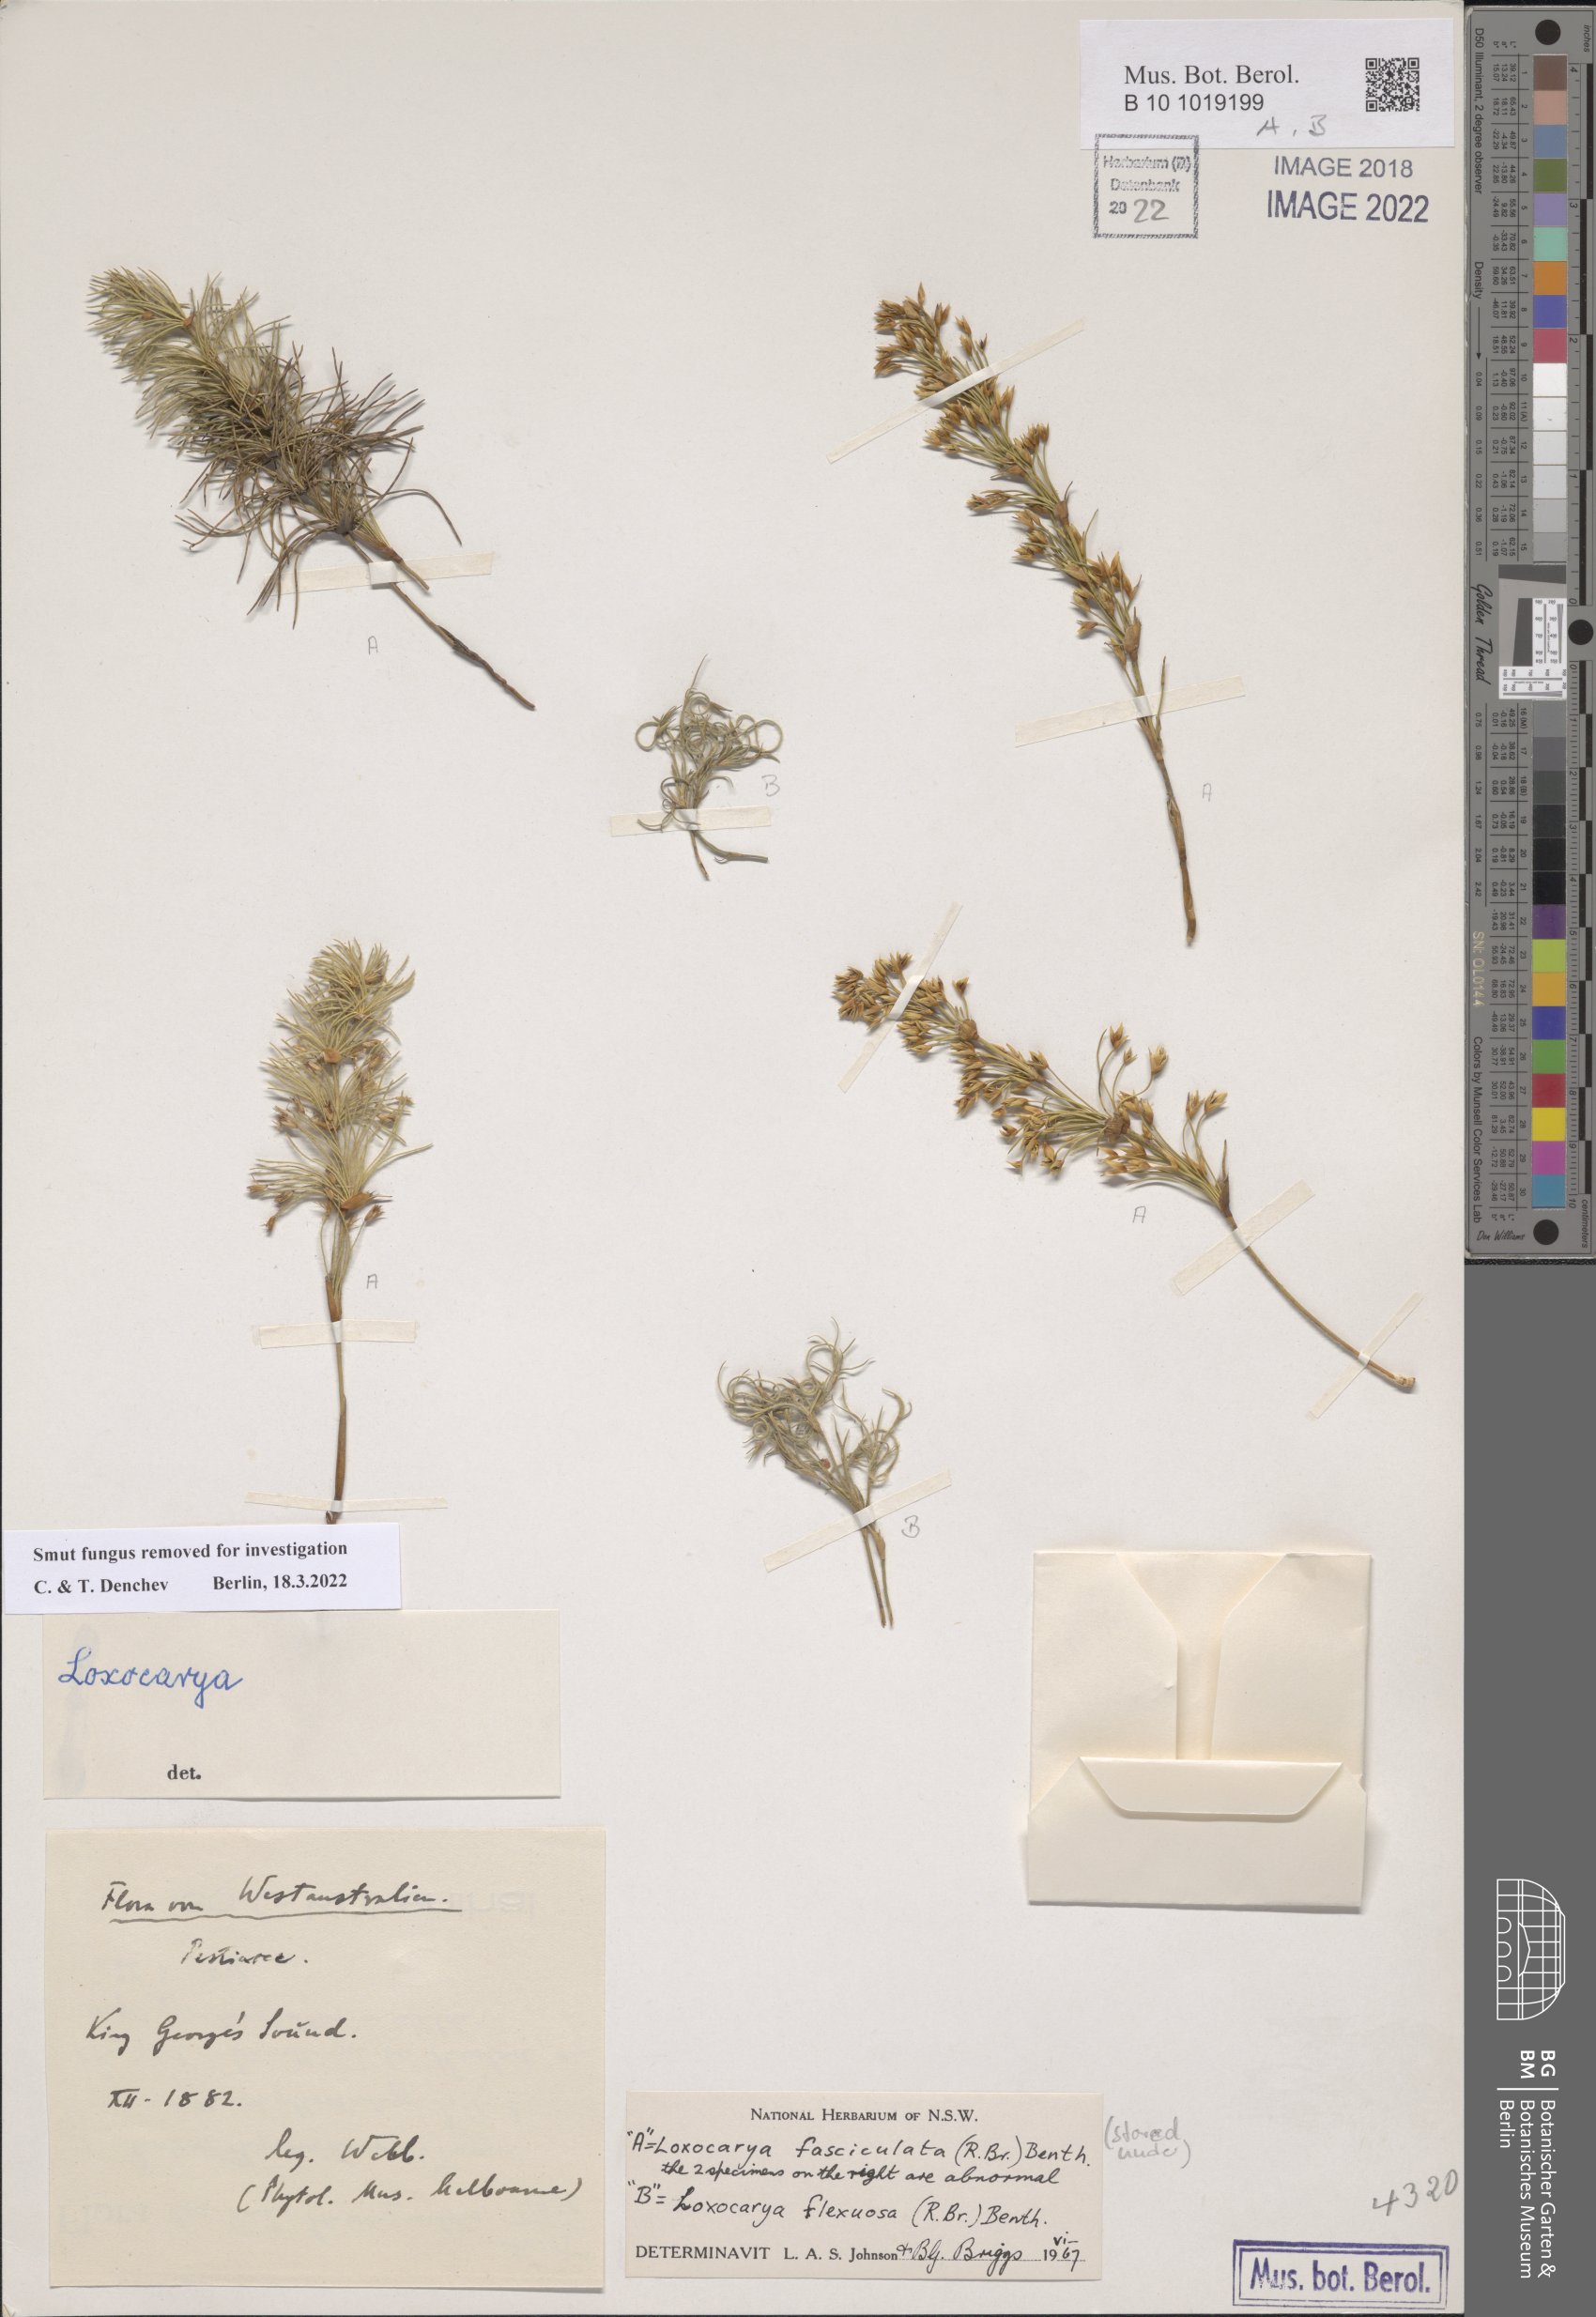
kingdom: Plantae
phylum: Tracheophyta
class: Liliopsida
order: Poales
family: Restionaceae
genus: Desmocladus
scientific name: Desmocladus flexuosus
